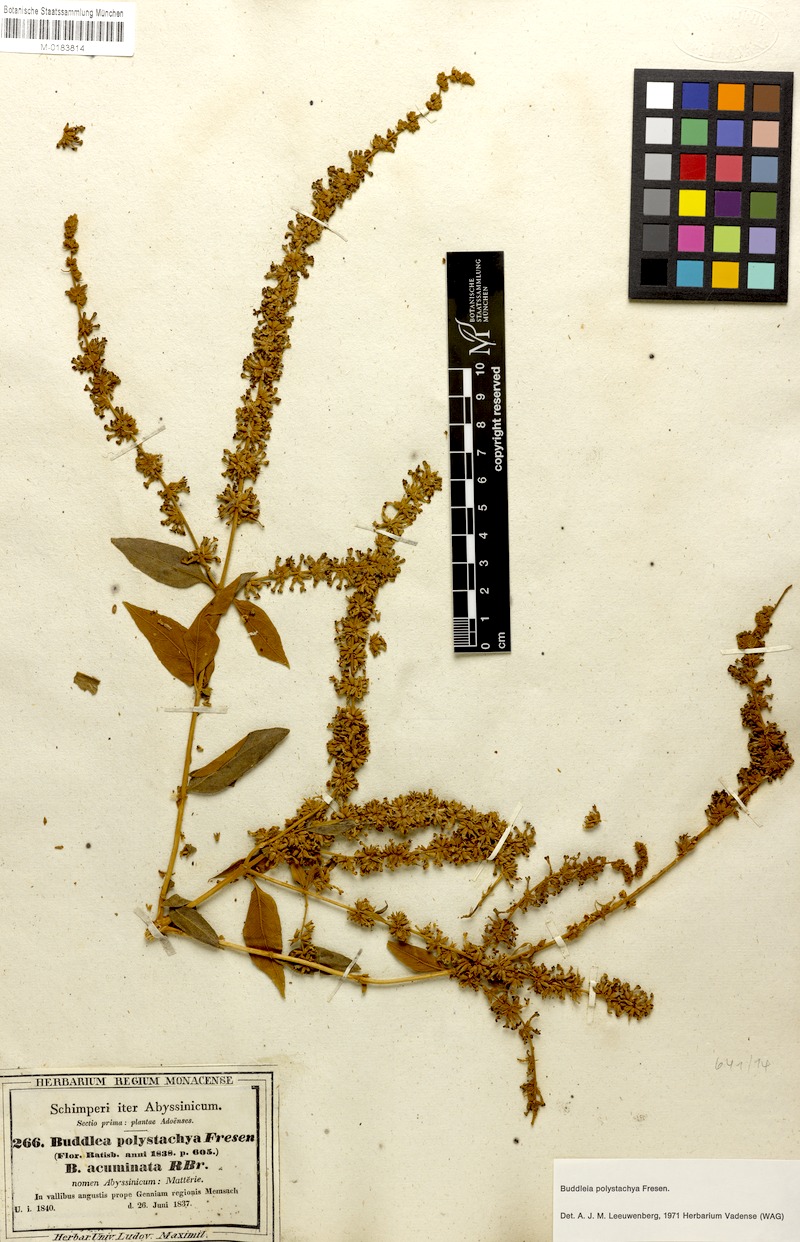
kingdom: Plantae
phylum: Tracheophyta
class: Magnoliopsida
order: Lamiales
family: Scrophulariaceae
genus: Buddleja
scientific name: Buddleja polystachya
